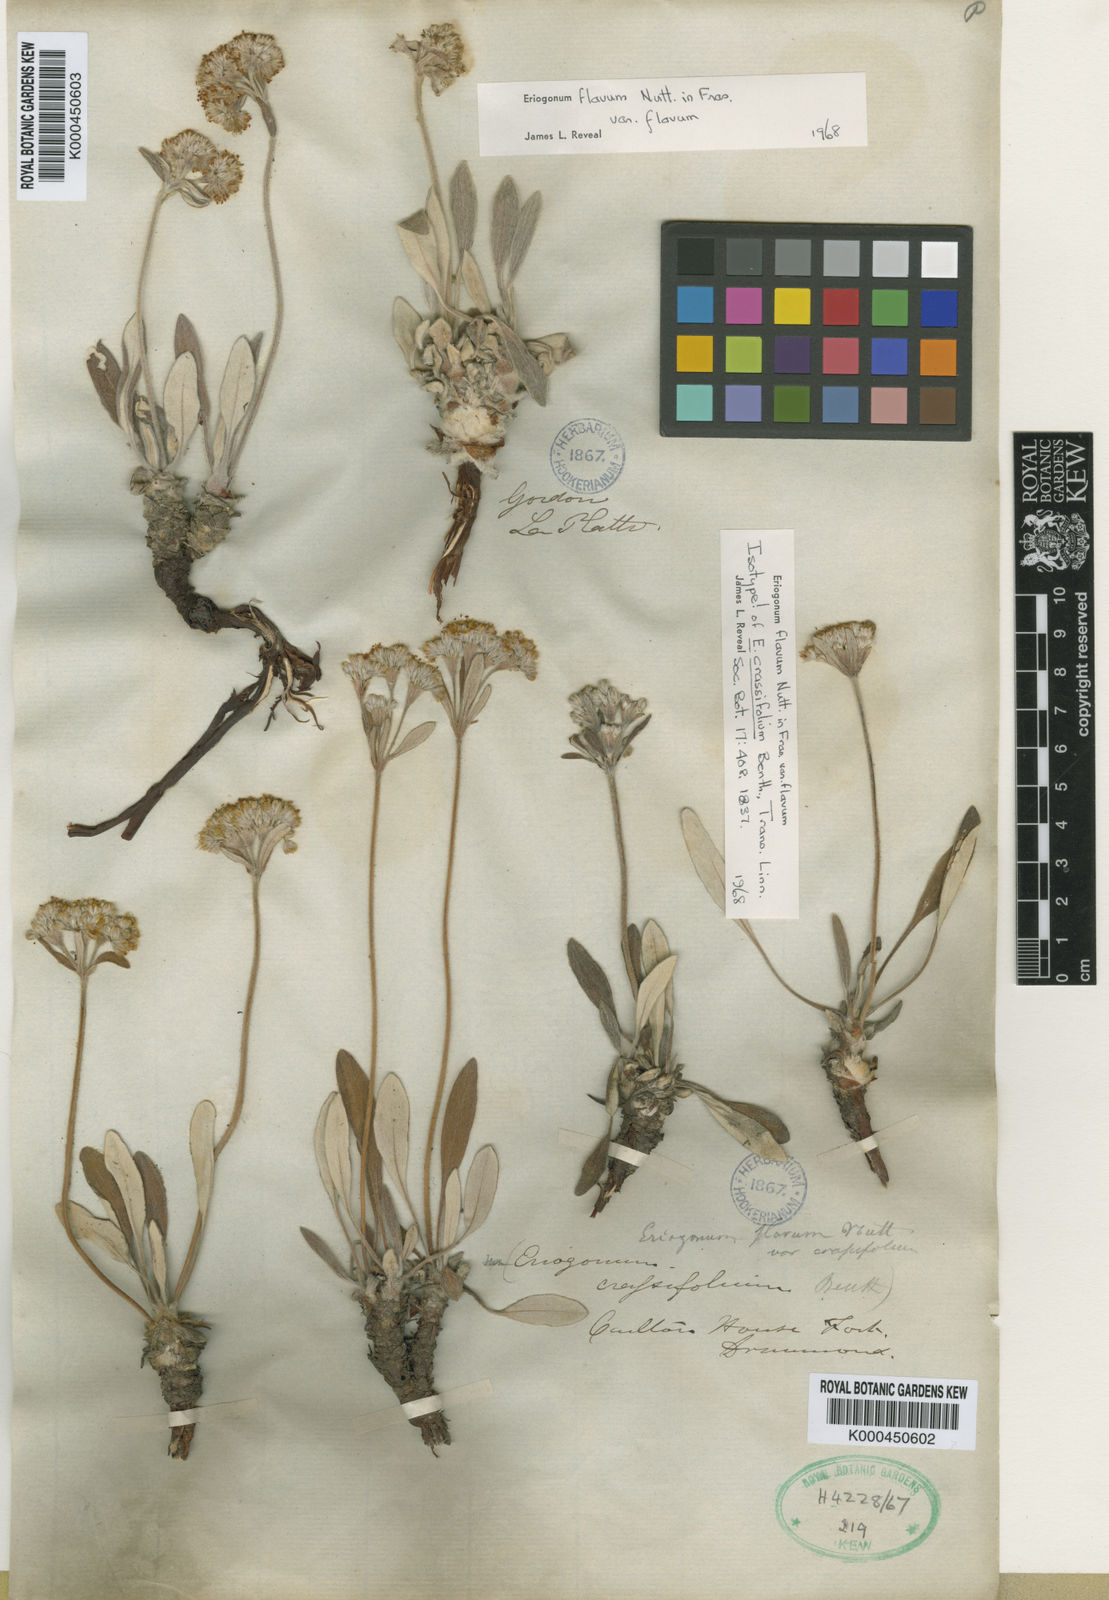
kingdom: Plantae
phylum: Tracheophyta
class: Magnoliopsida
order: Caryophyllales
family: Polygonaceae
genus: Eriogonum
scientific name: Eriogonum
